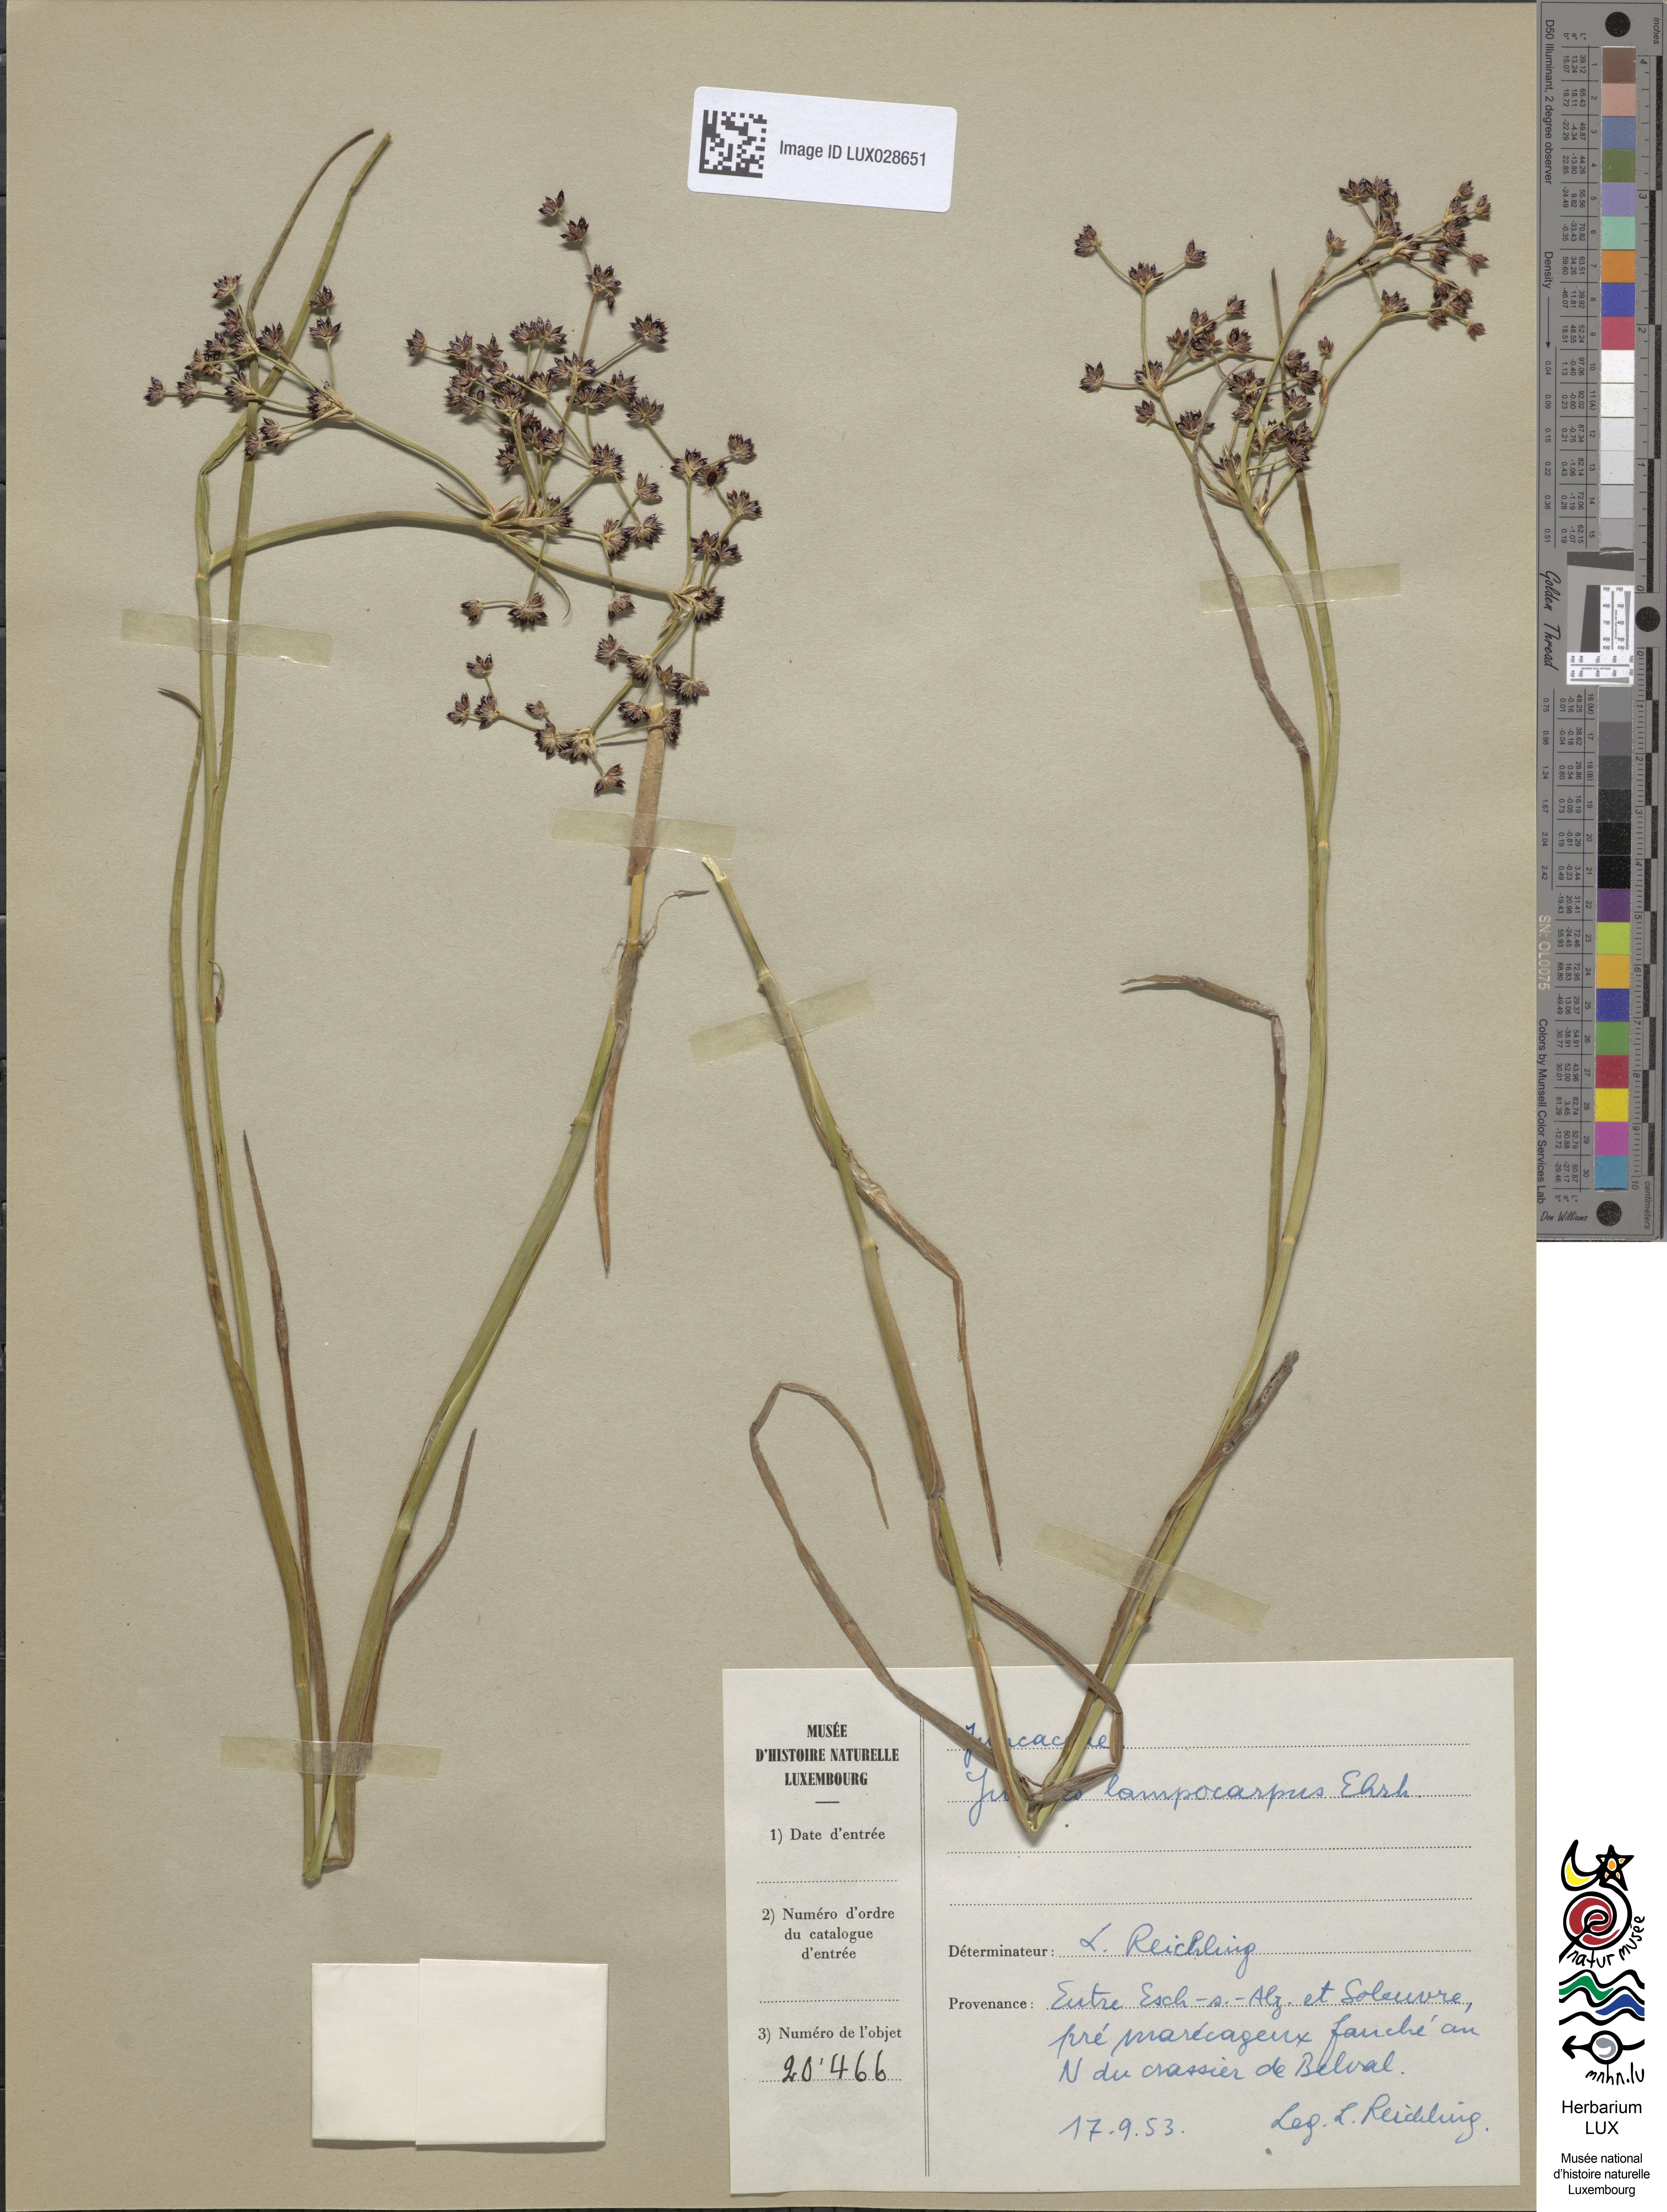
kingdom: Plantae
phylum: Tracheophyta
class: Liliopsida
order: Poales
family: Juncaceae
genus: Juncus
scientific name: Juncus articulatus
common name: Jointed rush
